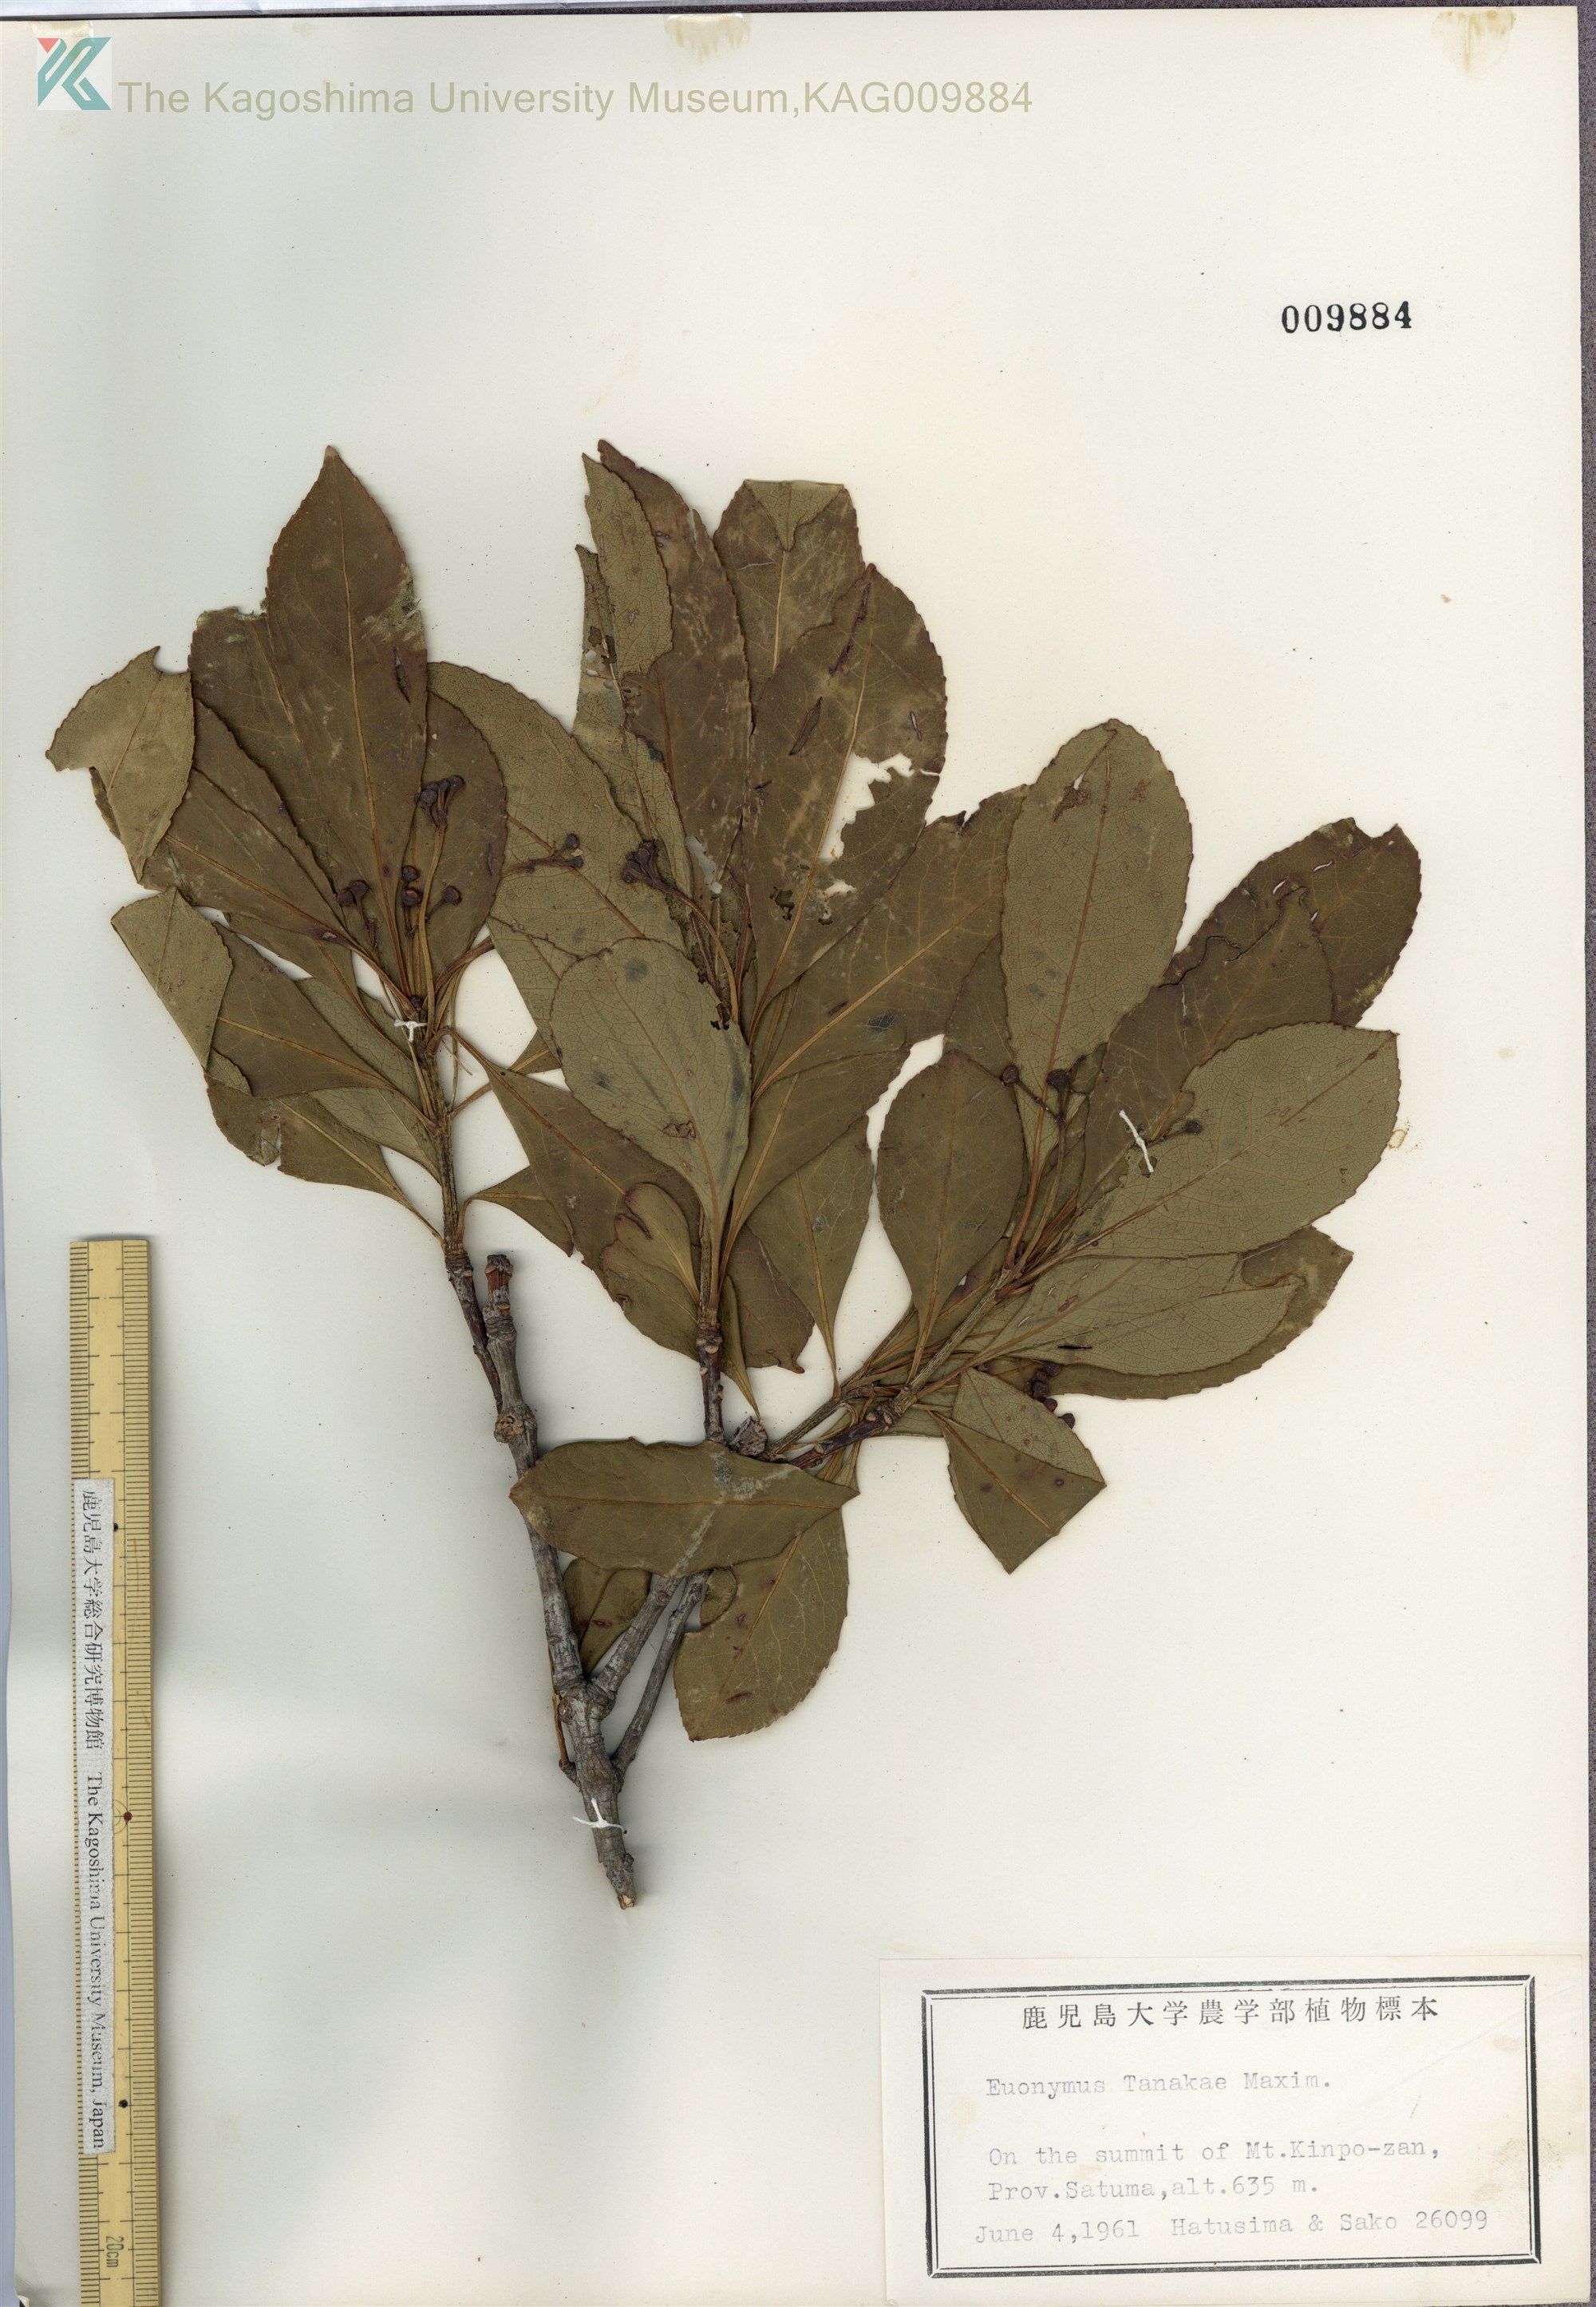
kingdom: Plantae
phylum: Tracheophyta
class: Magnoliopsida
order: Celastrales
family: Celastraceae
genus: Euonymus
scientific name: Euonymus carnosus
